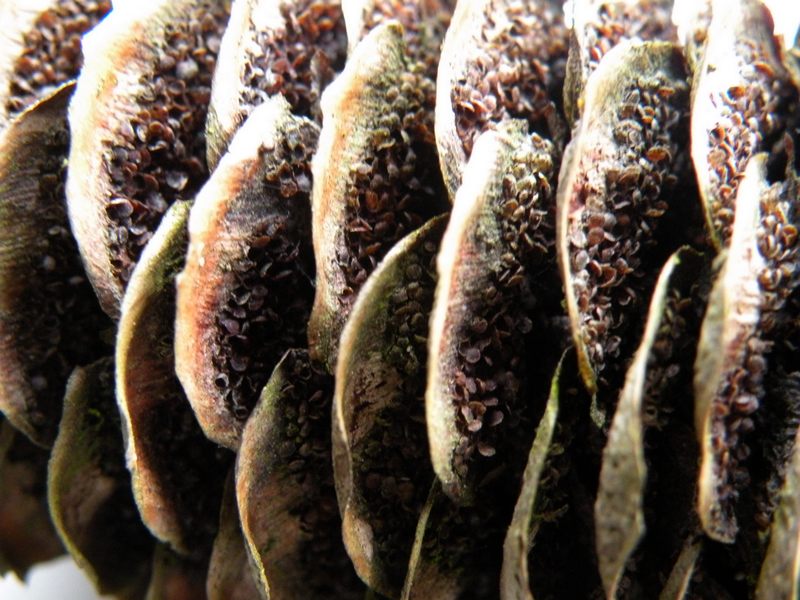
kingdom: Fungi
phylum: Basidiomycota
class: Pucciniomycetes
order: Pucciniales
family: Pucciniastraceae
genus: Thekopsora
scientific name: Thekopsora areolata
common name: grankogle-nålerust
